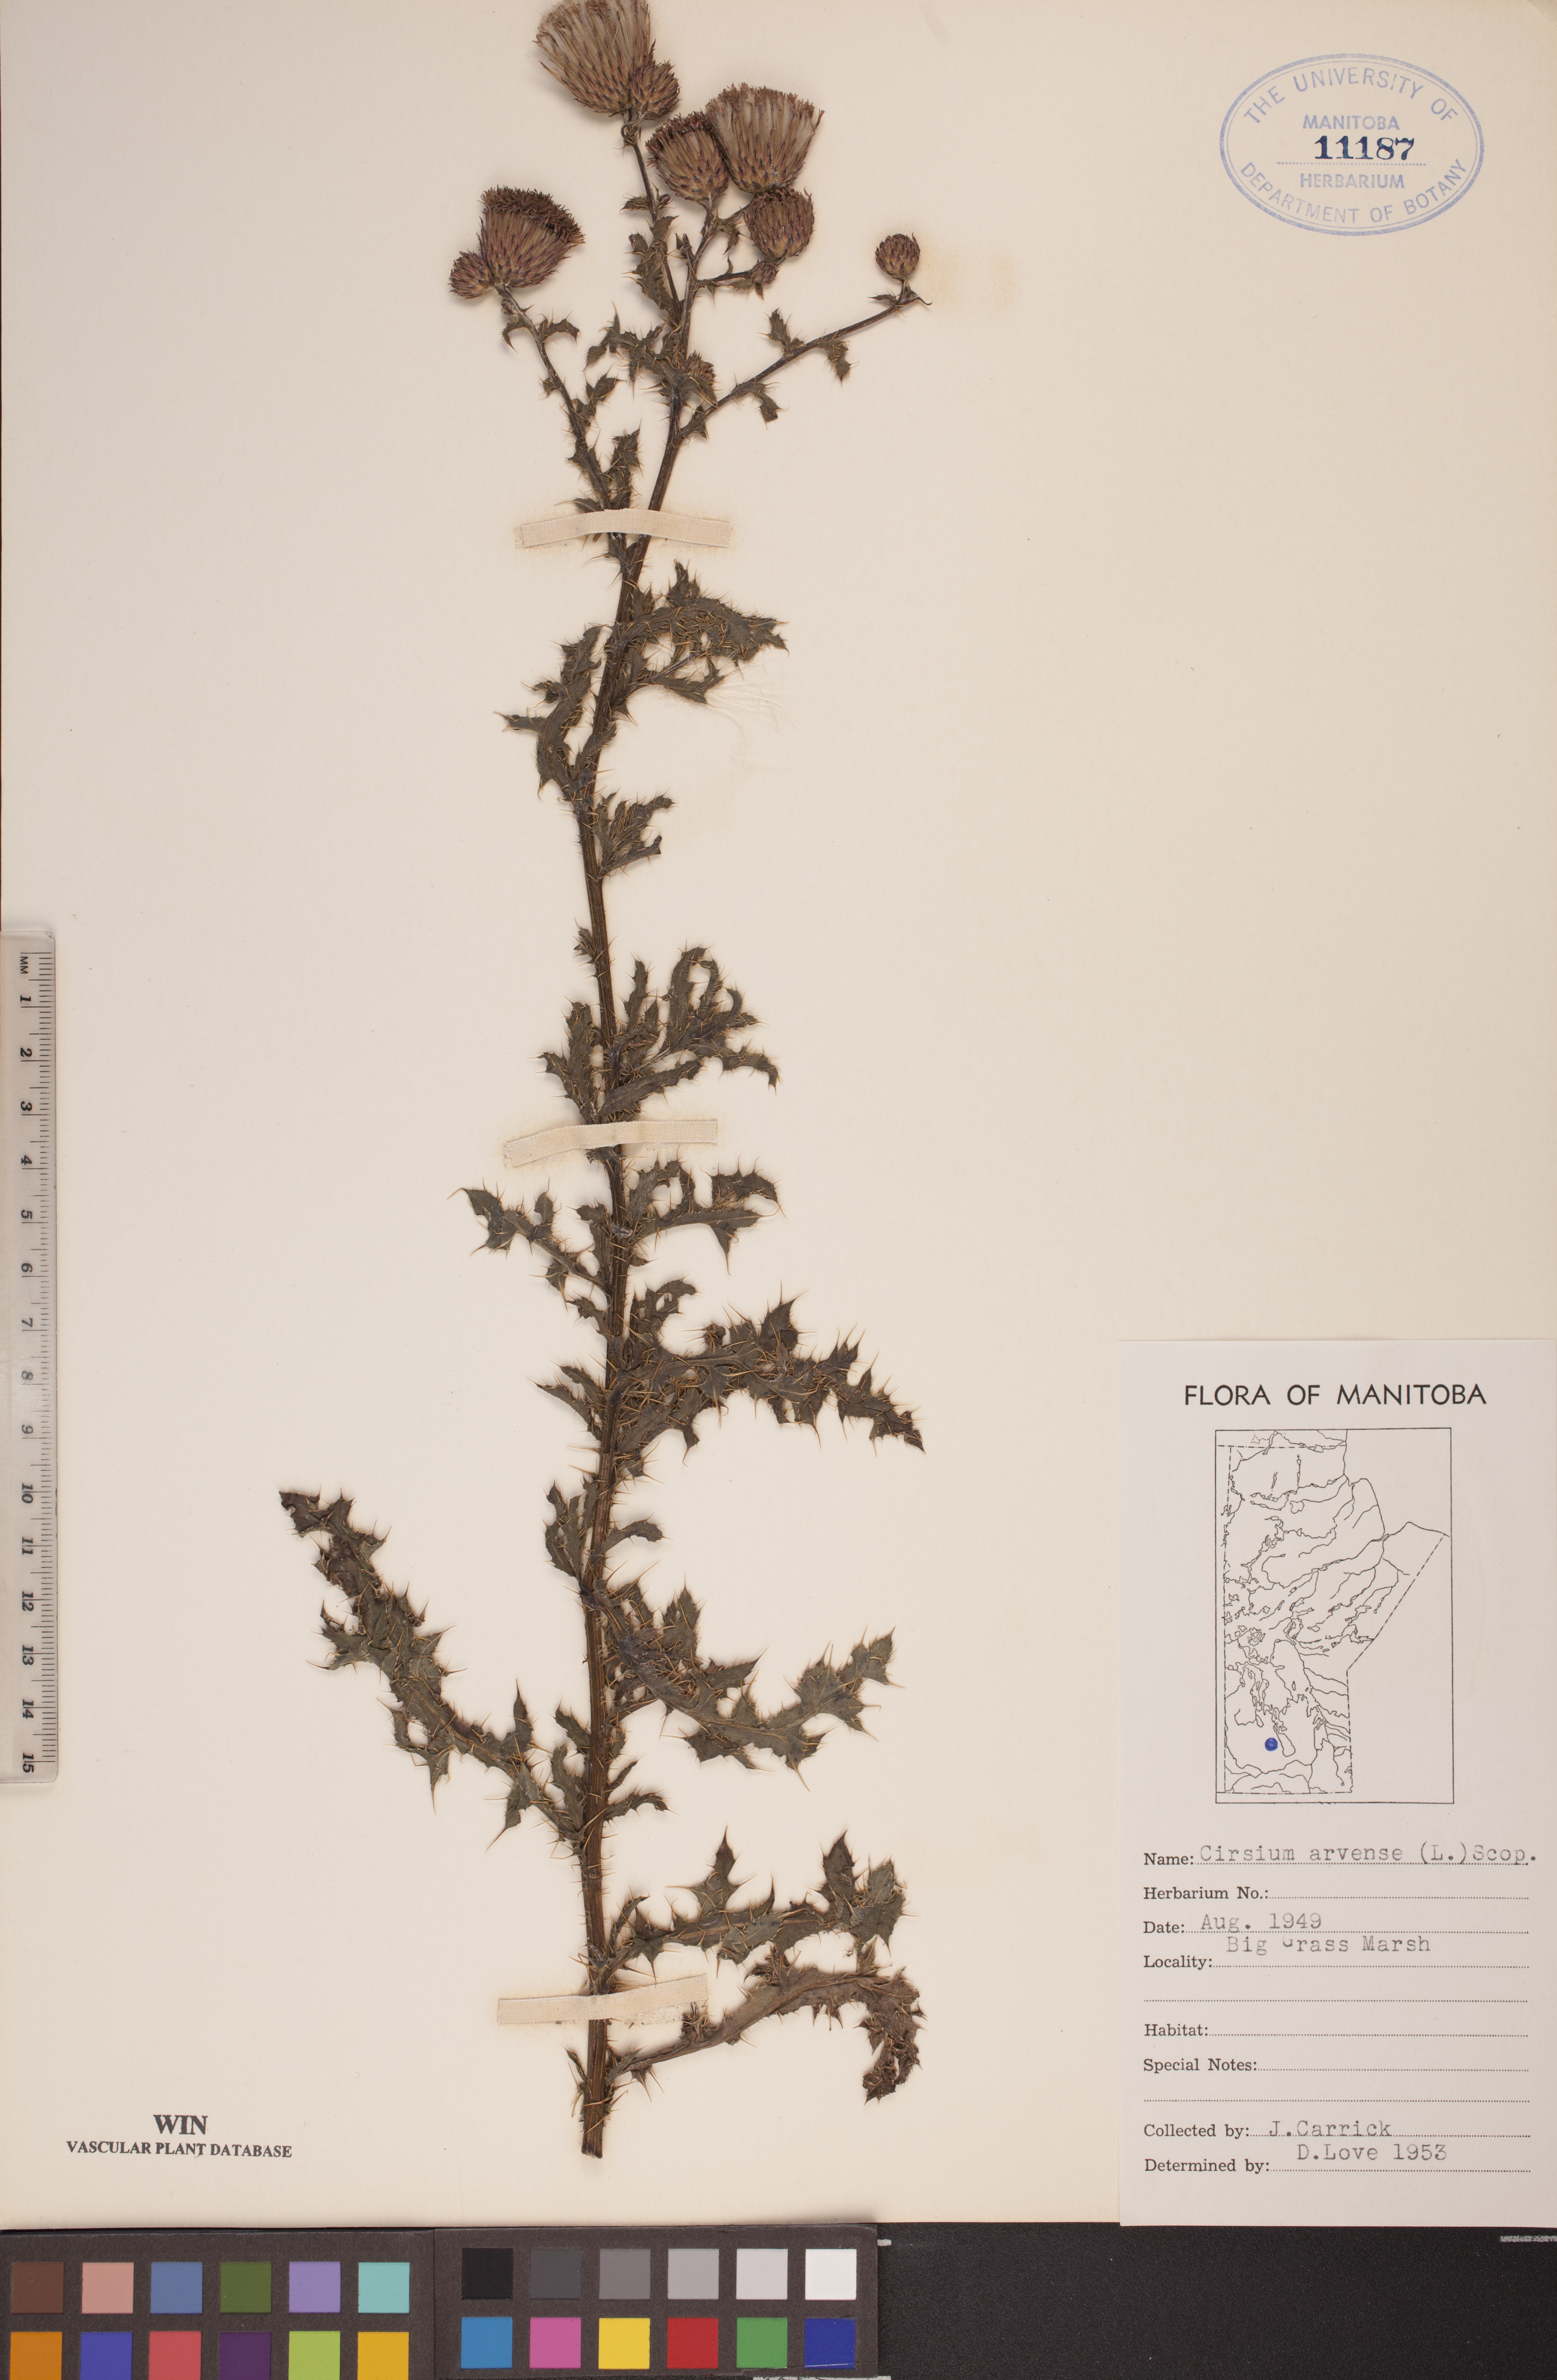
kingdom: Plantae
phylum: Tracheophyta
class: Magnoliopsida
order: Asterales
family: Asteraceae
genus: Cirsium
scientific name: Cirsium arvense
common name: Creeping thistle
